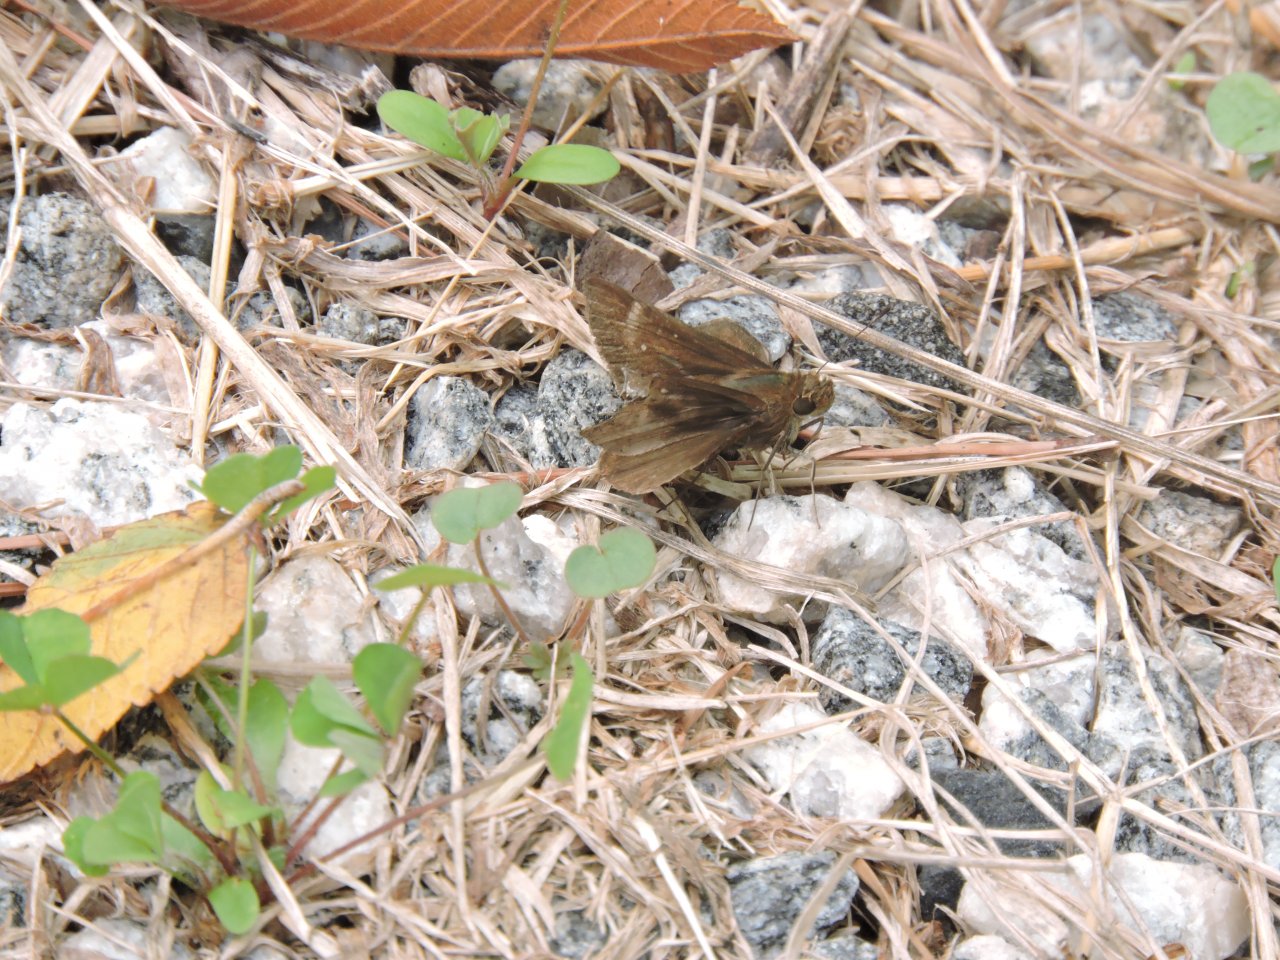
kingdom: Animalia
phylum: Arthropoda
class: Insecta
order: Lepidoptera
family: Hesperiidae
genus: Lerema
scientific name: Lerema accius
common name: Clouded Skipper
